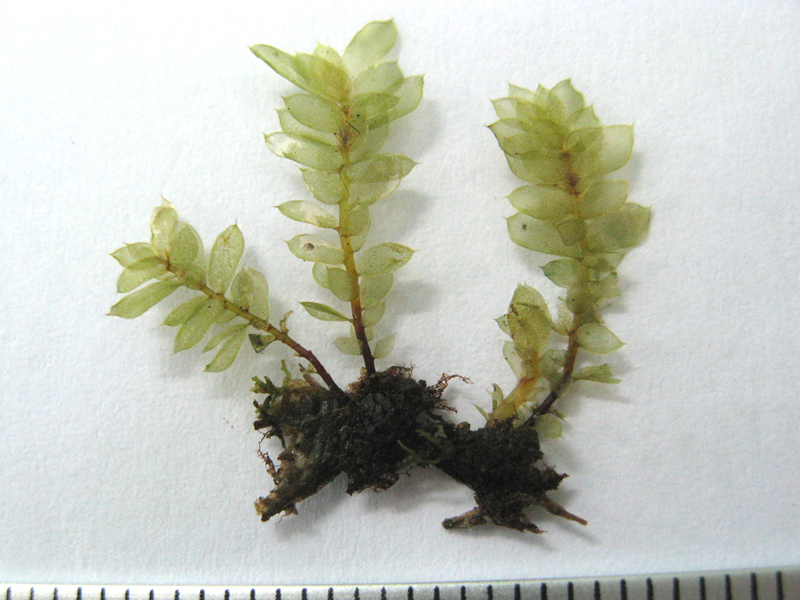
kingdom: Plantae
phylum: Bryophyta
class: Bryopsida
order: Hookeriales
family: Daltoniaceae
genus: Calyptrochaeta
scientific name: Calyptrochaeta remotifolia
